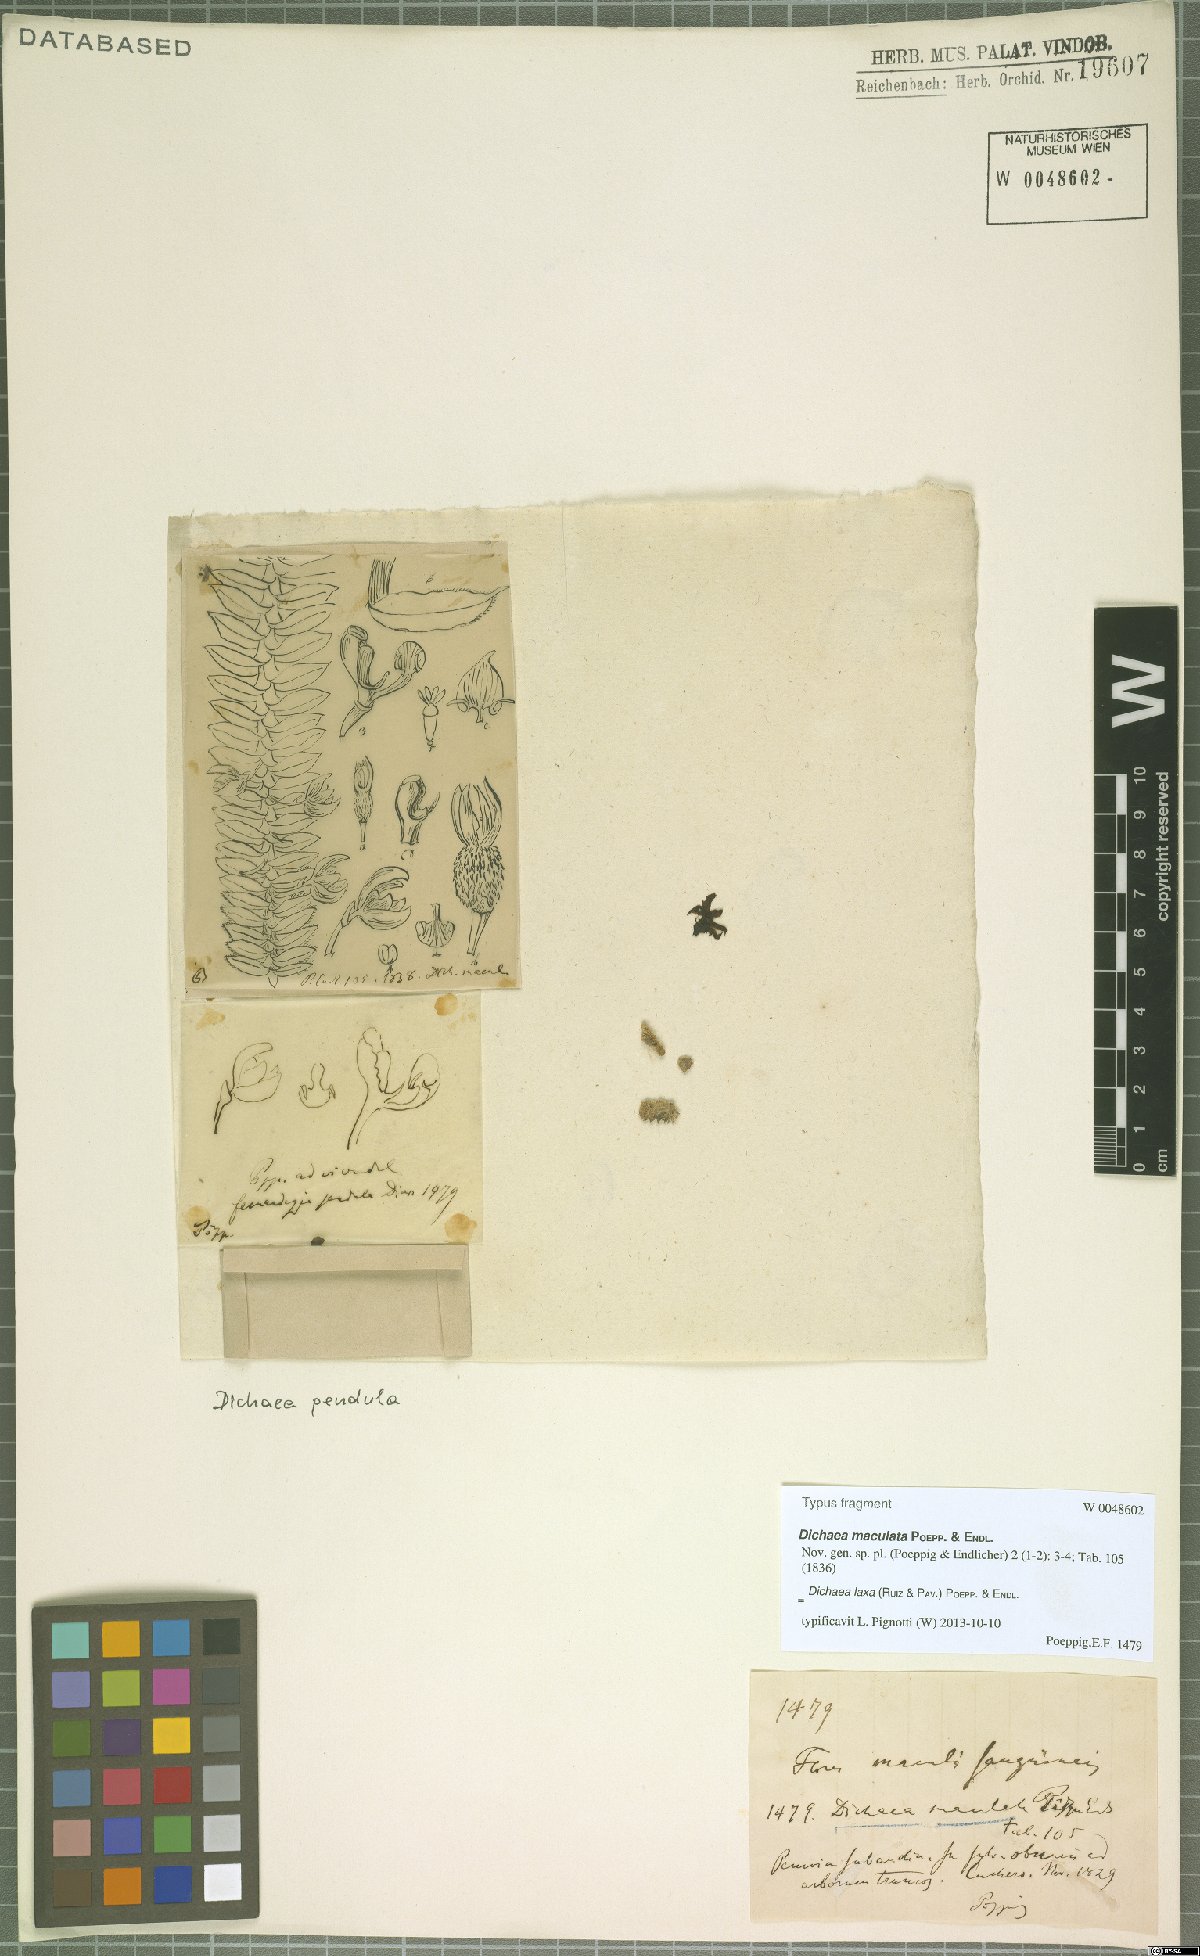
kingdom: Plantae
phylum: Tracheophyta
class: Liliopsida
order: Asparagales
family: Orchidaceae
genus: Dichaea
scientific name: Dichaea laxa
